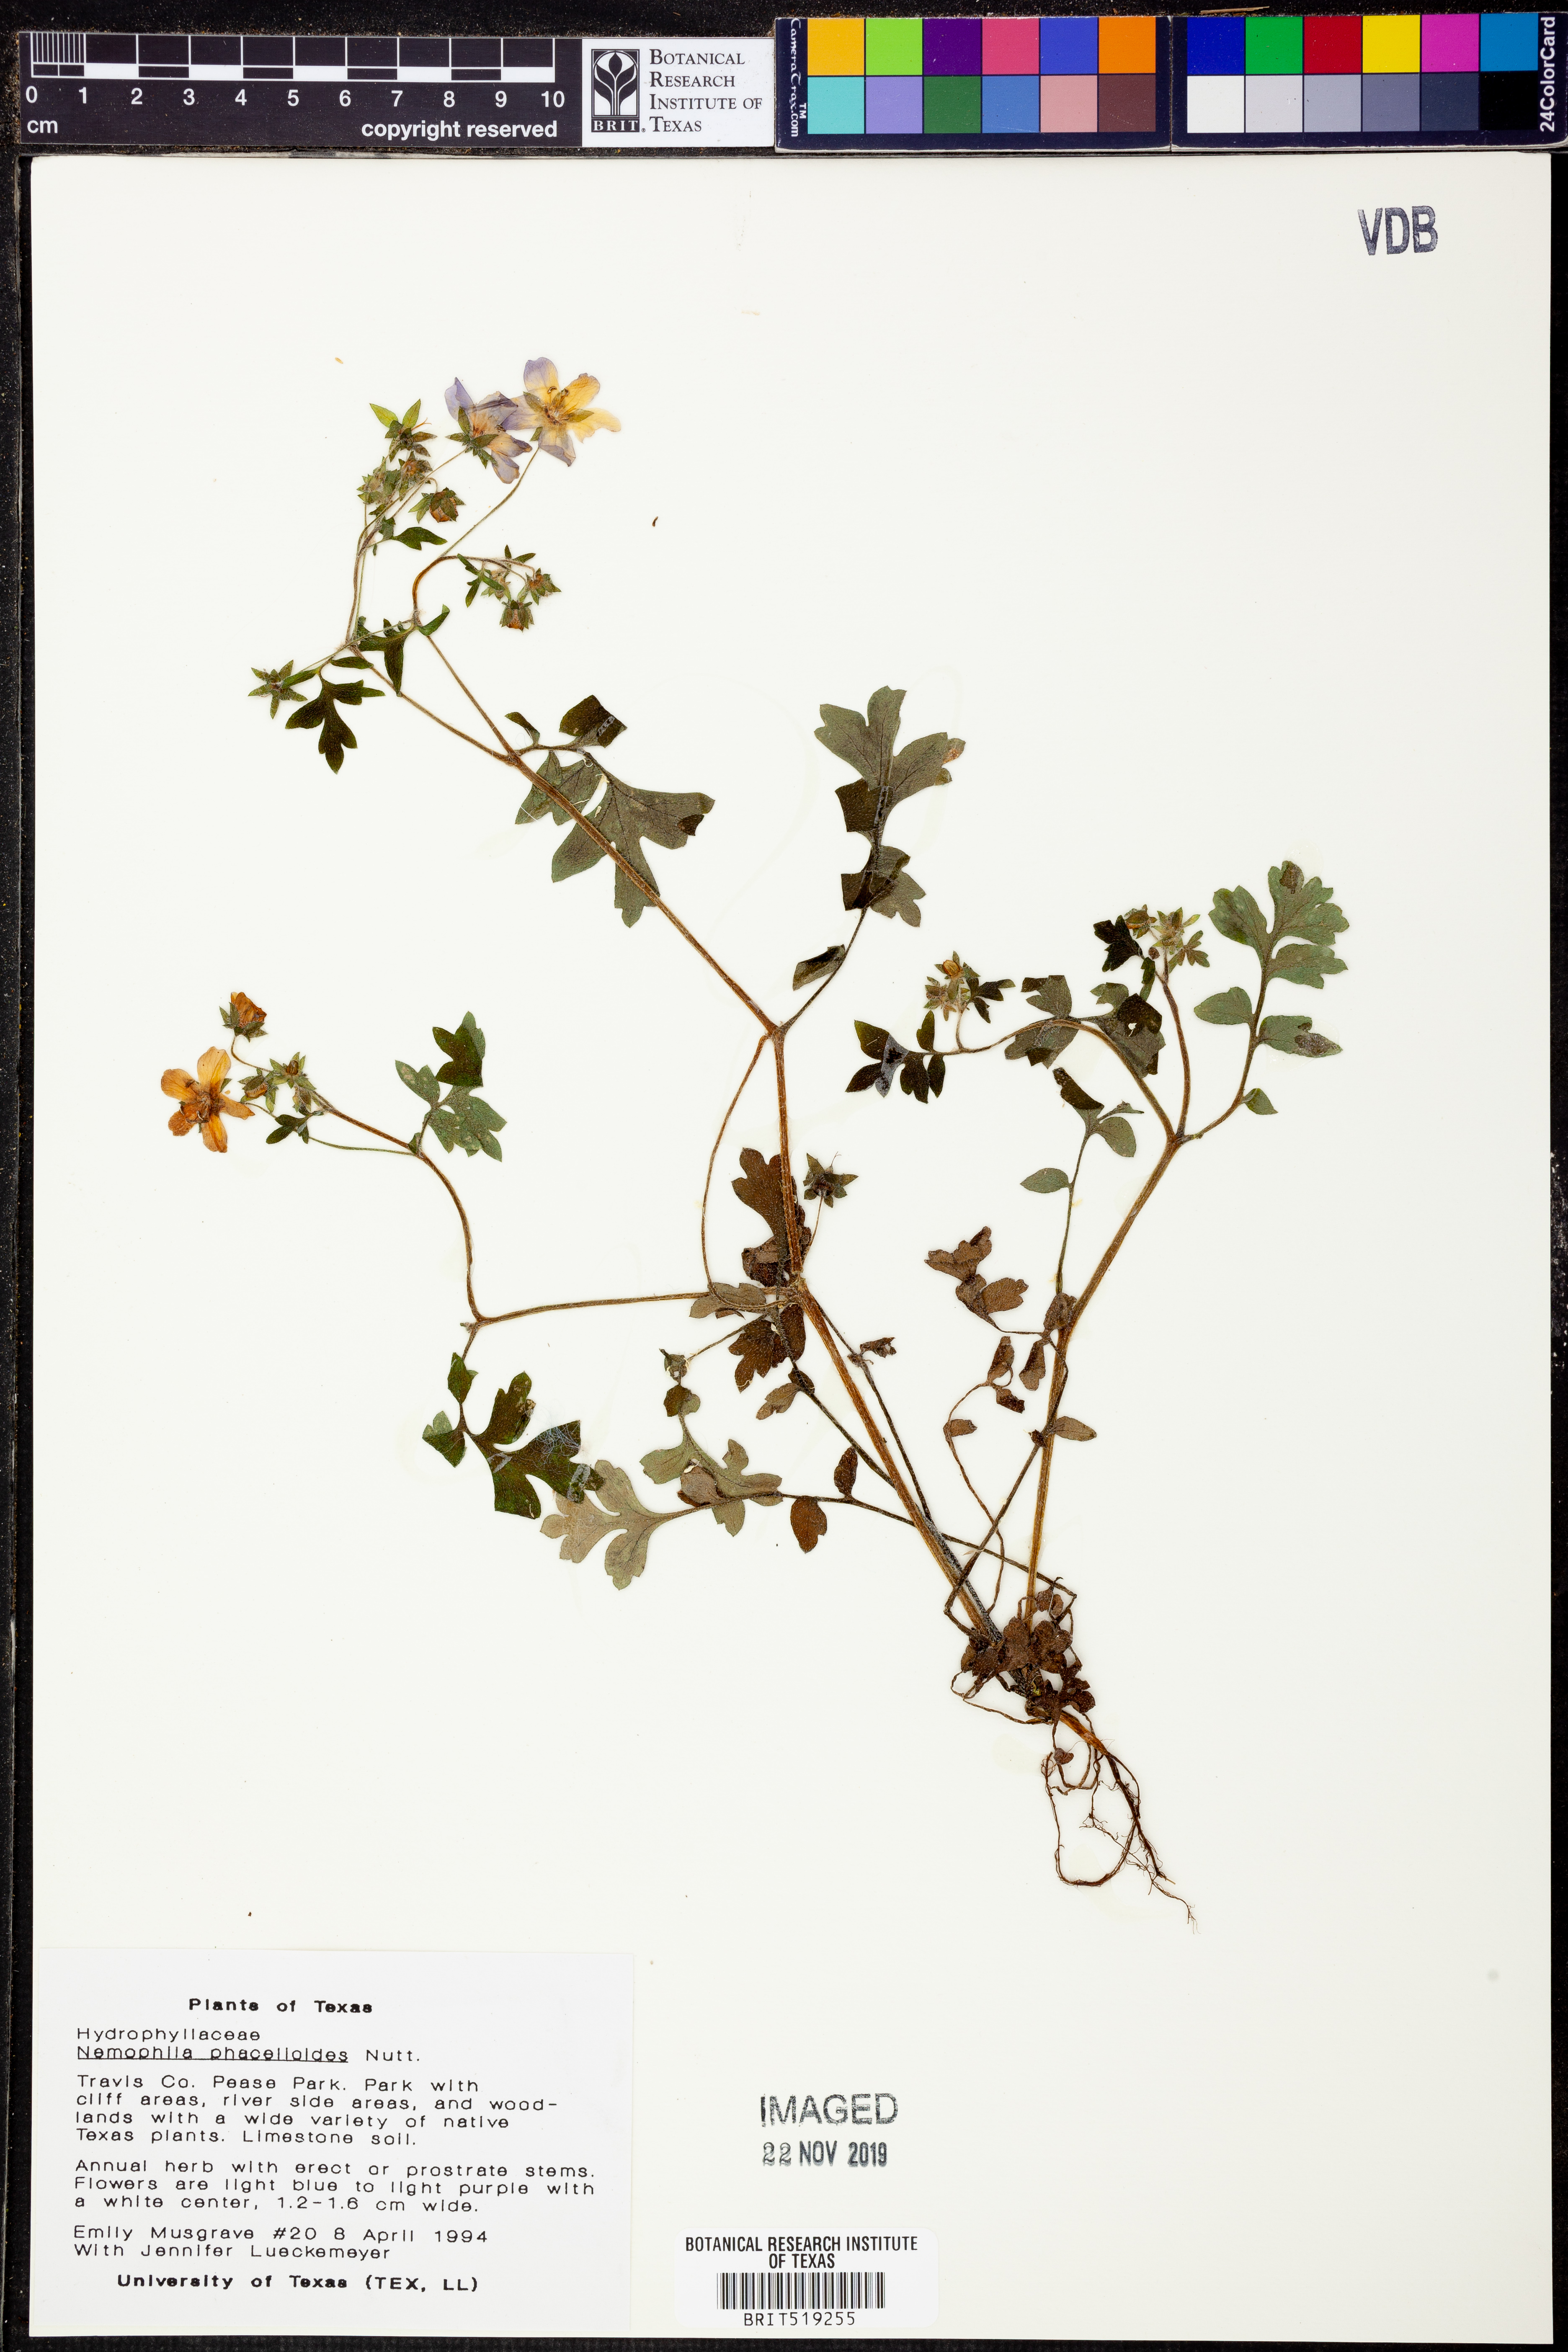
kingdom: Plantae
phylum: Tracheophyta
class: Magnoliopsida
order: Boraginales
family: Hydrophyllaceae
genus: Nemophila
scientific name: Nemophila phacelioides
